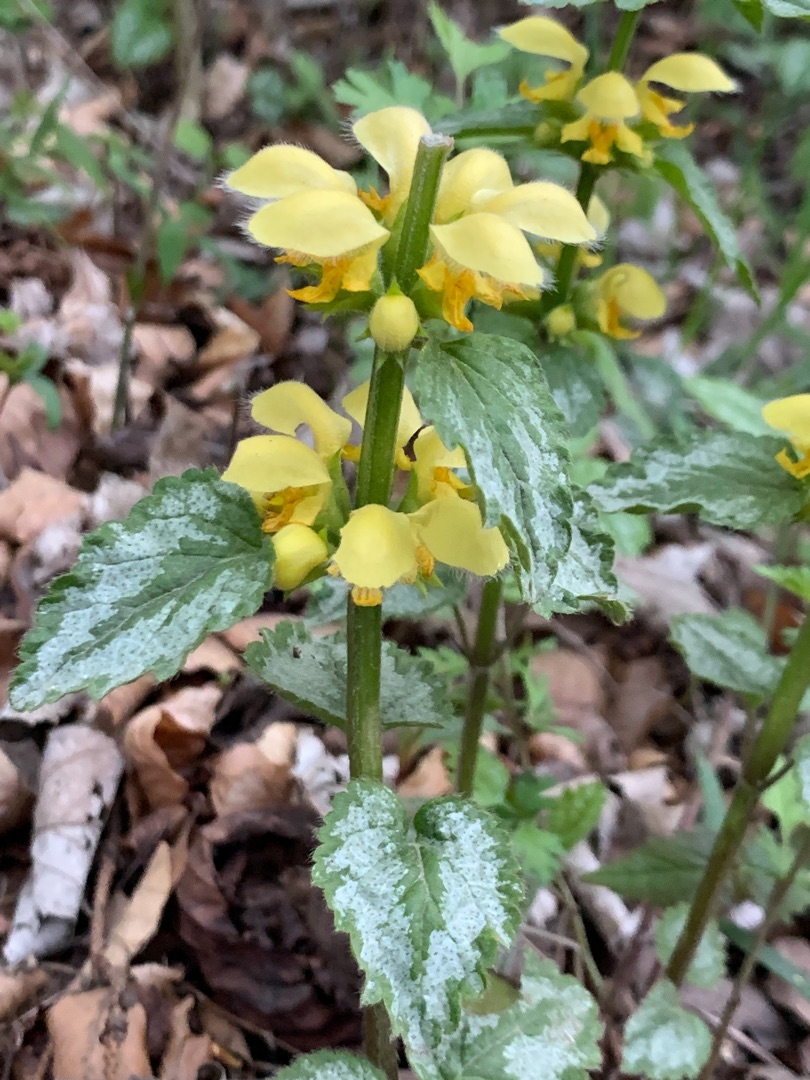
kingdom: Plantae
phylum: Tracheophyta
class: Magnoliopsida
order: Lamiales
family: Lamiaceae
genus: Lamium
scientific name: Lamium galeobdolon
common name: Have-guldnælde
